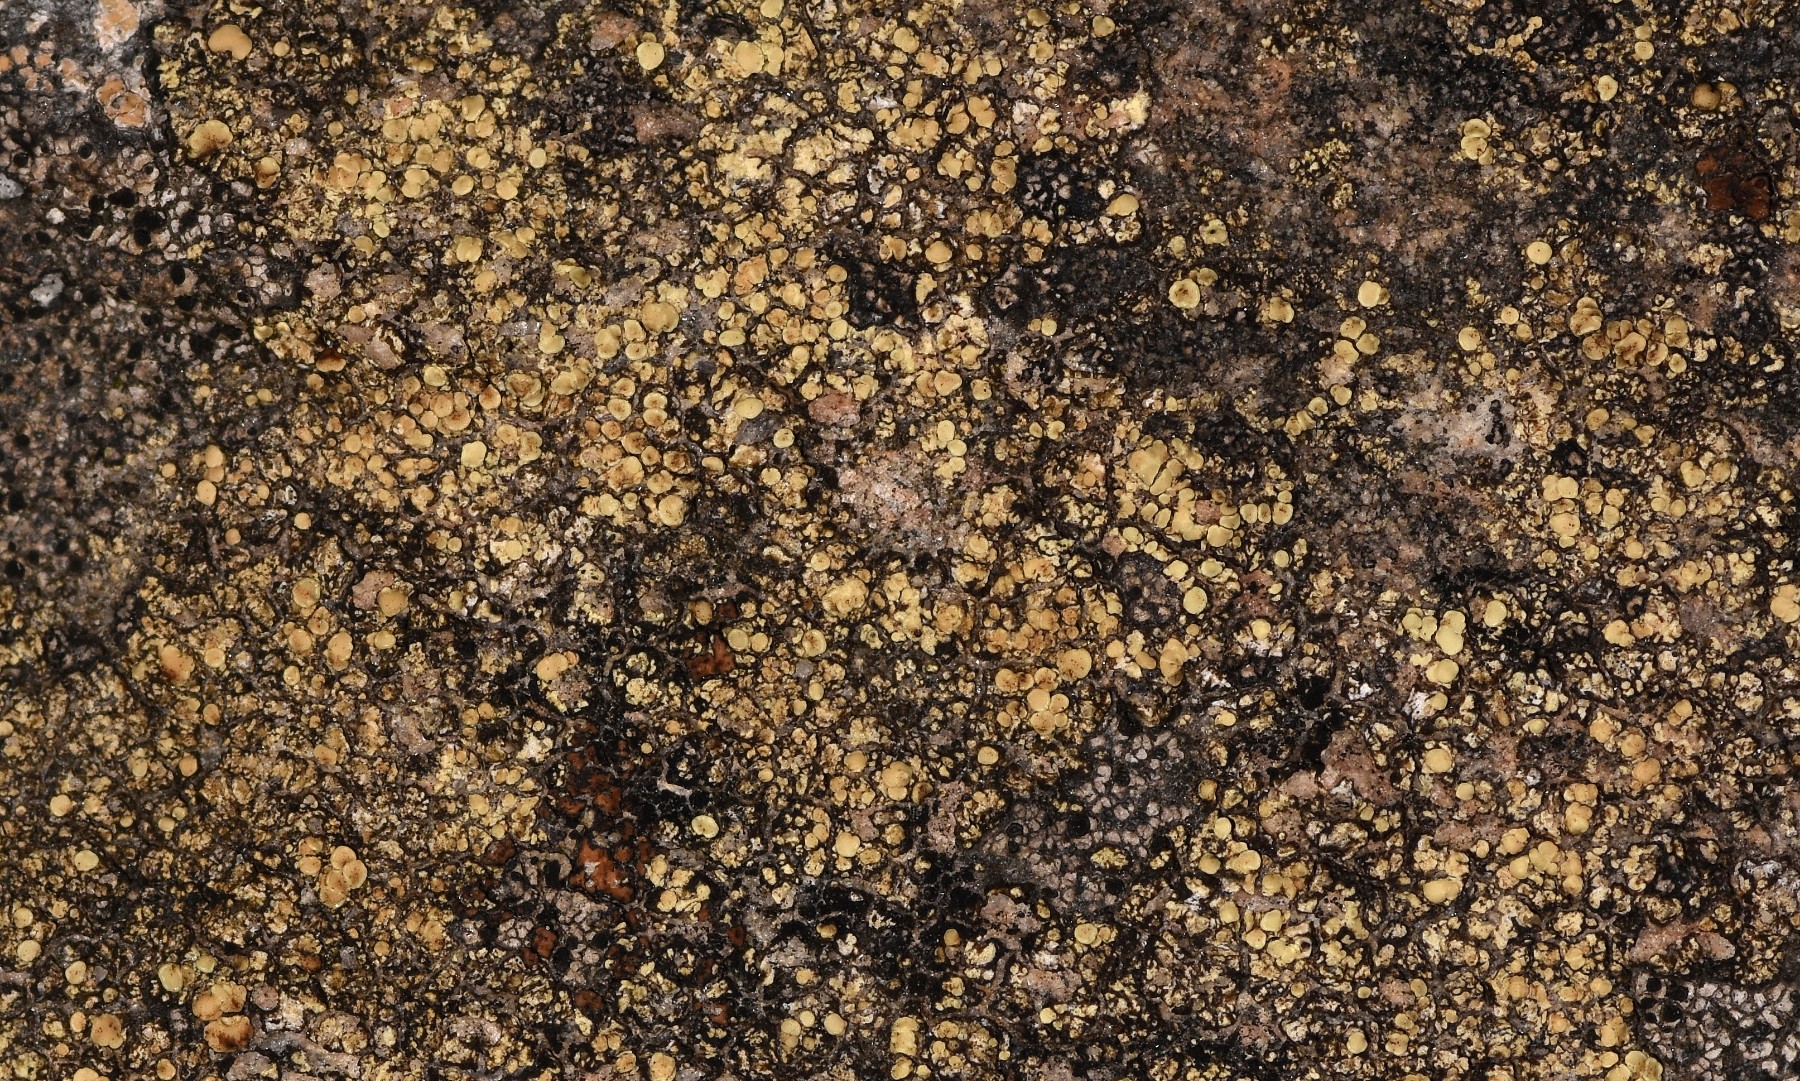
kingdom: Fungi
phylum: Ascomycota
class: Lecanoromycetes
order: Lecanorales
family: Lecanoraceae
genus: Lecanora
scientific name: Lecanora polytropa
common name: bleggrøn kantskivelav
